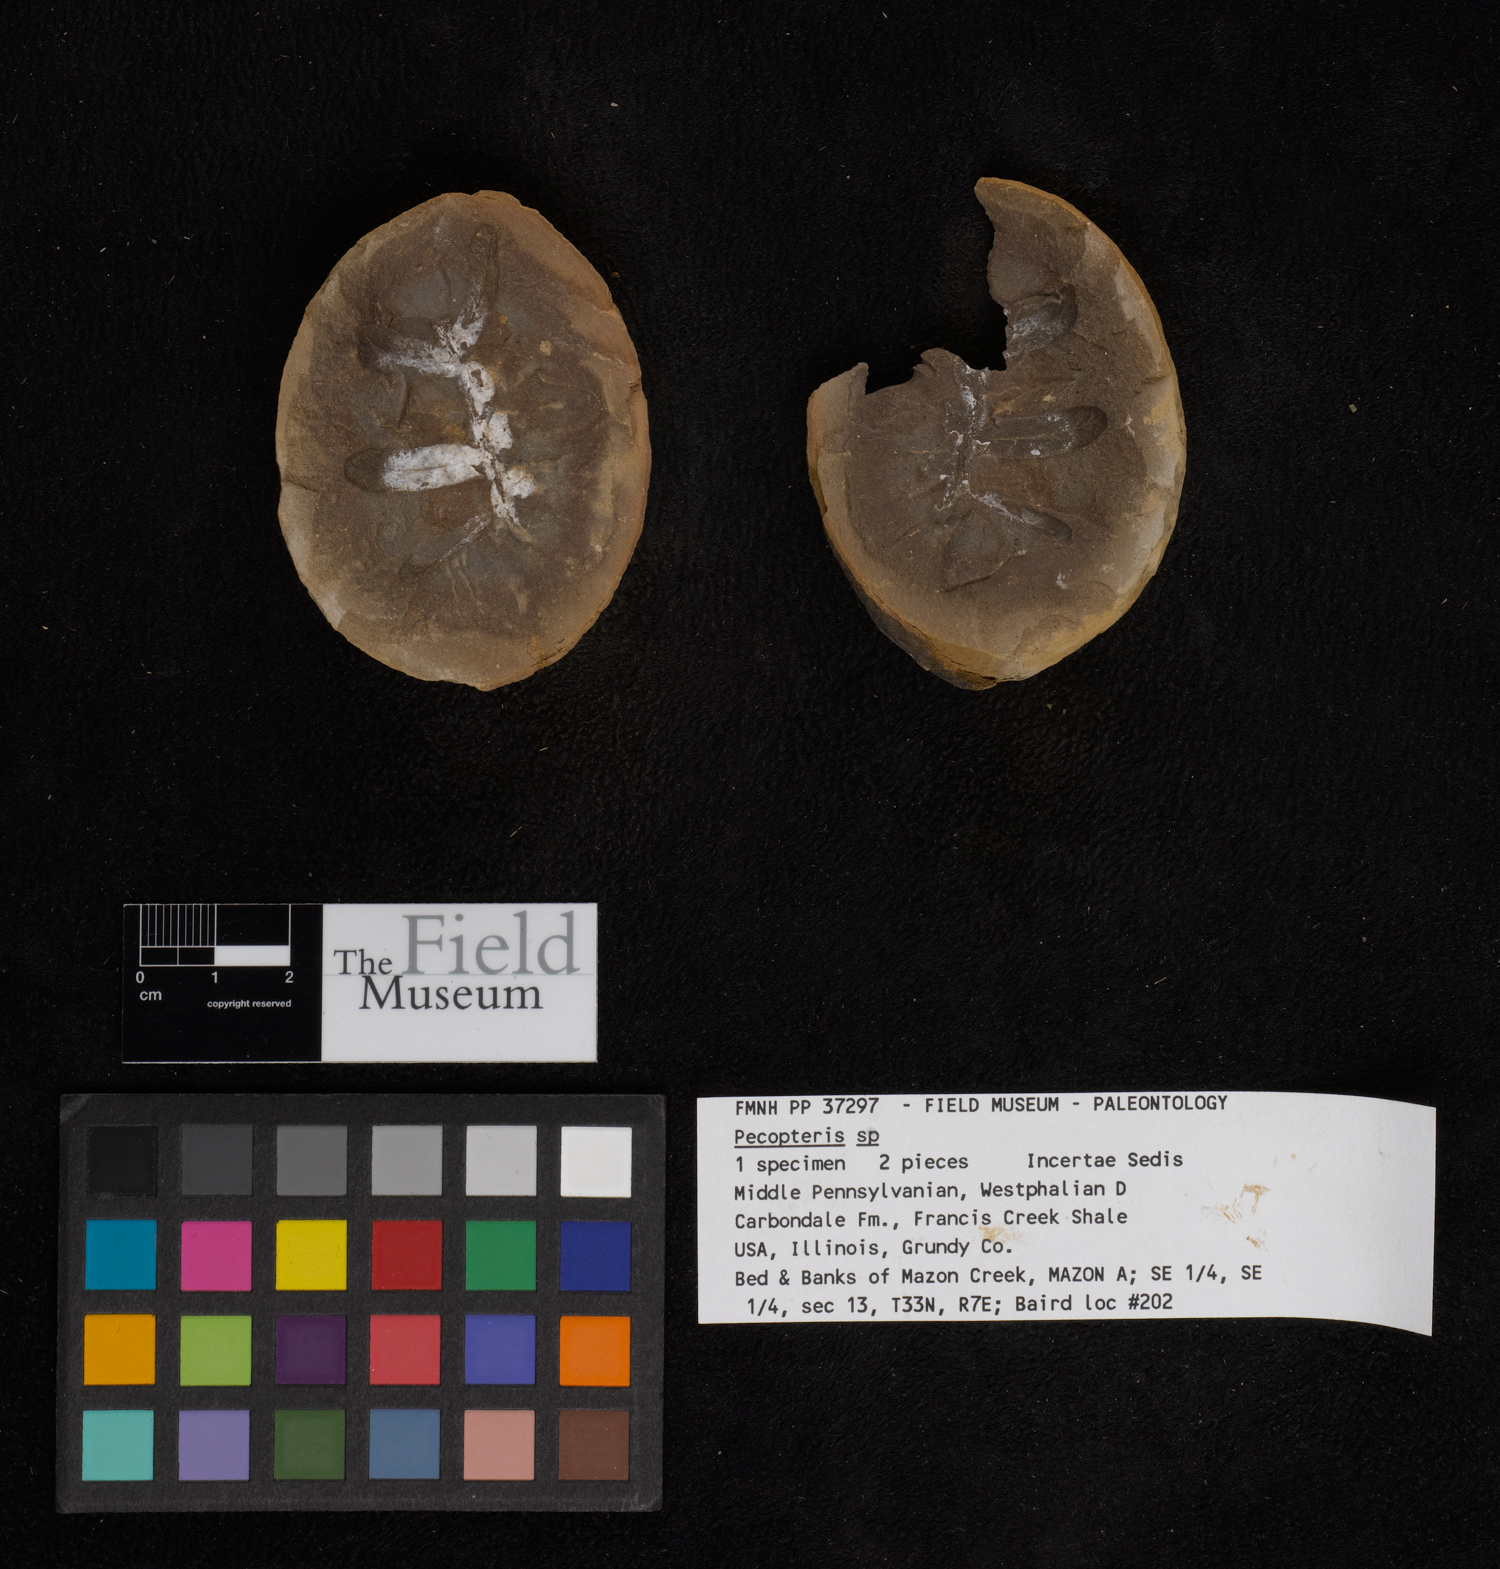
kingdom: Plantae
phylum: Tracheophyta
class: Polypodiopsida
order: Marattiales
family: Asterothecaceae
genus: Pecopteris
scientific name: Pecopteris
